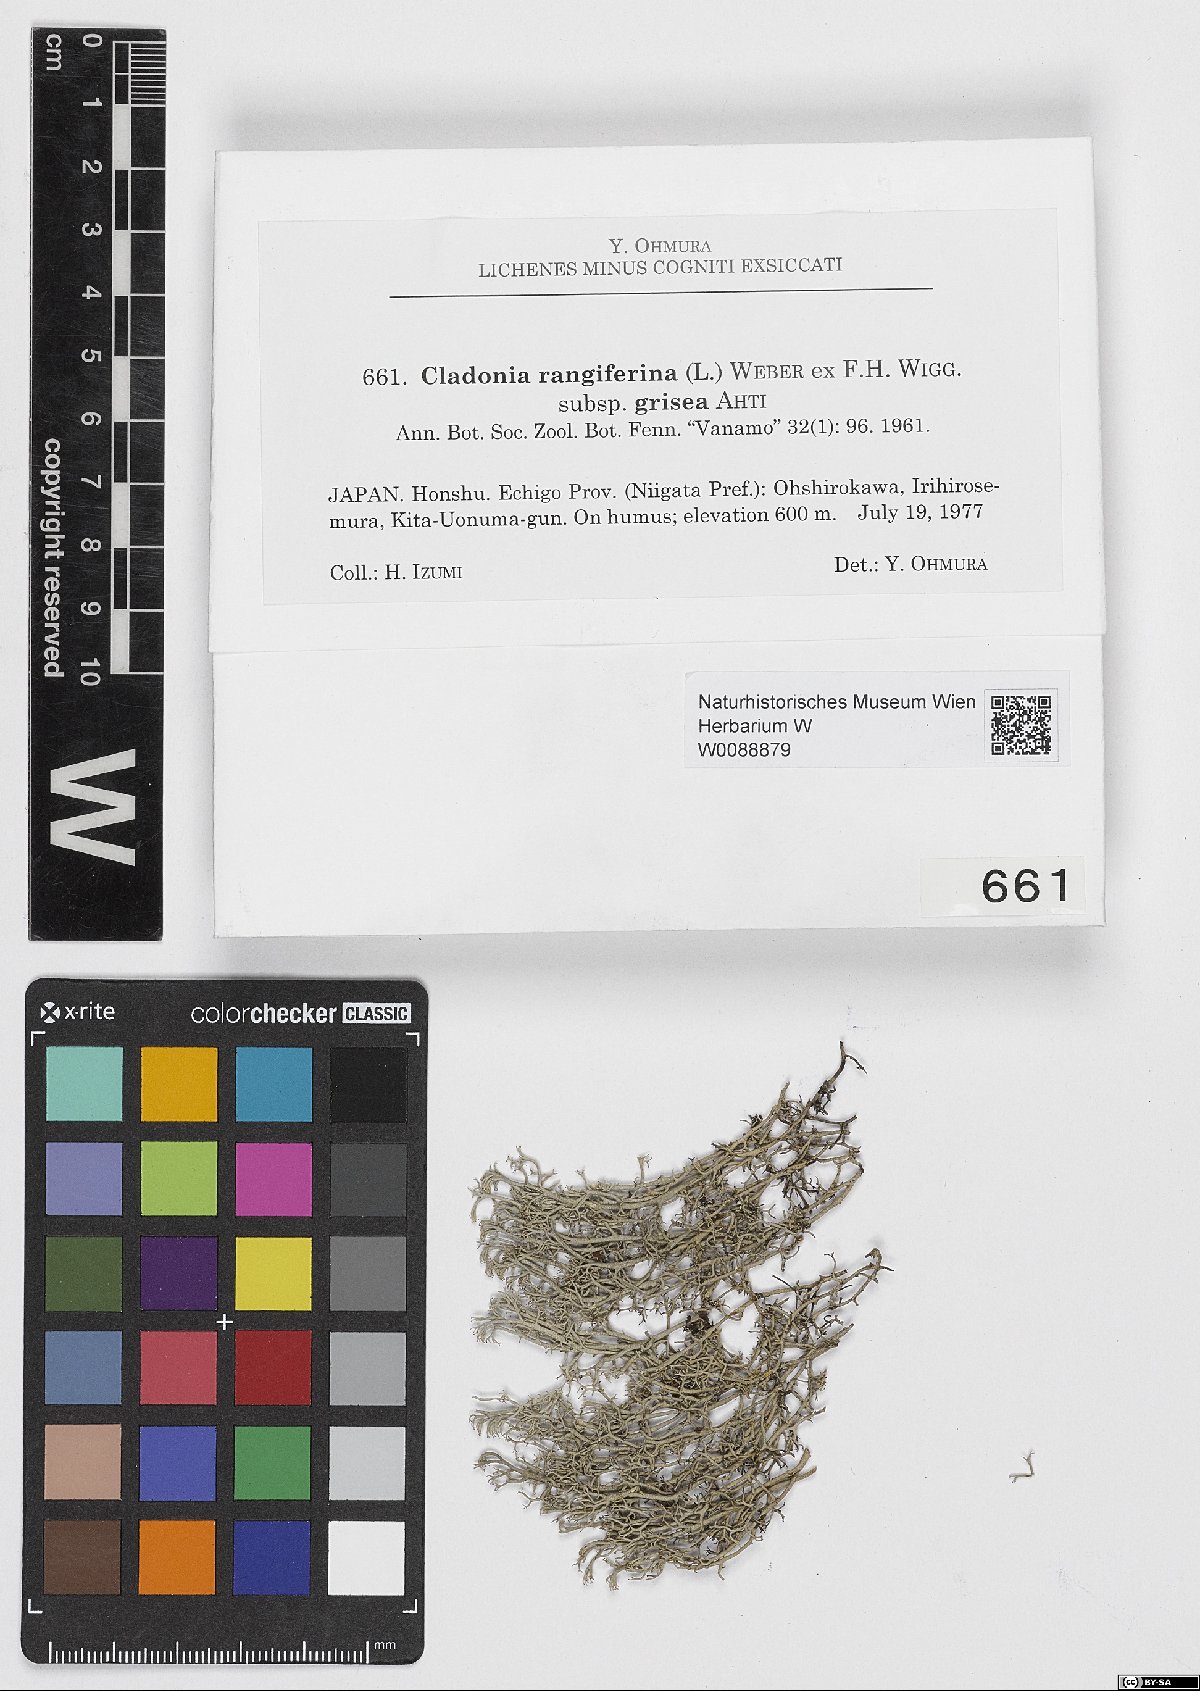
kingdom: Fungi
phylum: Ascomycota
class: Lecanoromycetes
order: Lecanorales
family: Cladoniaceae
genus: Cladonia
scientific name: Cladonia grisea
